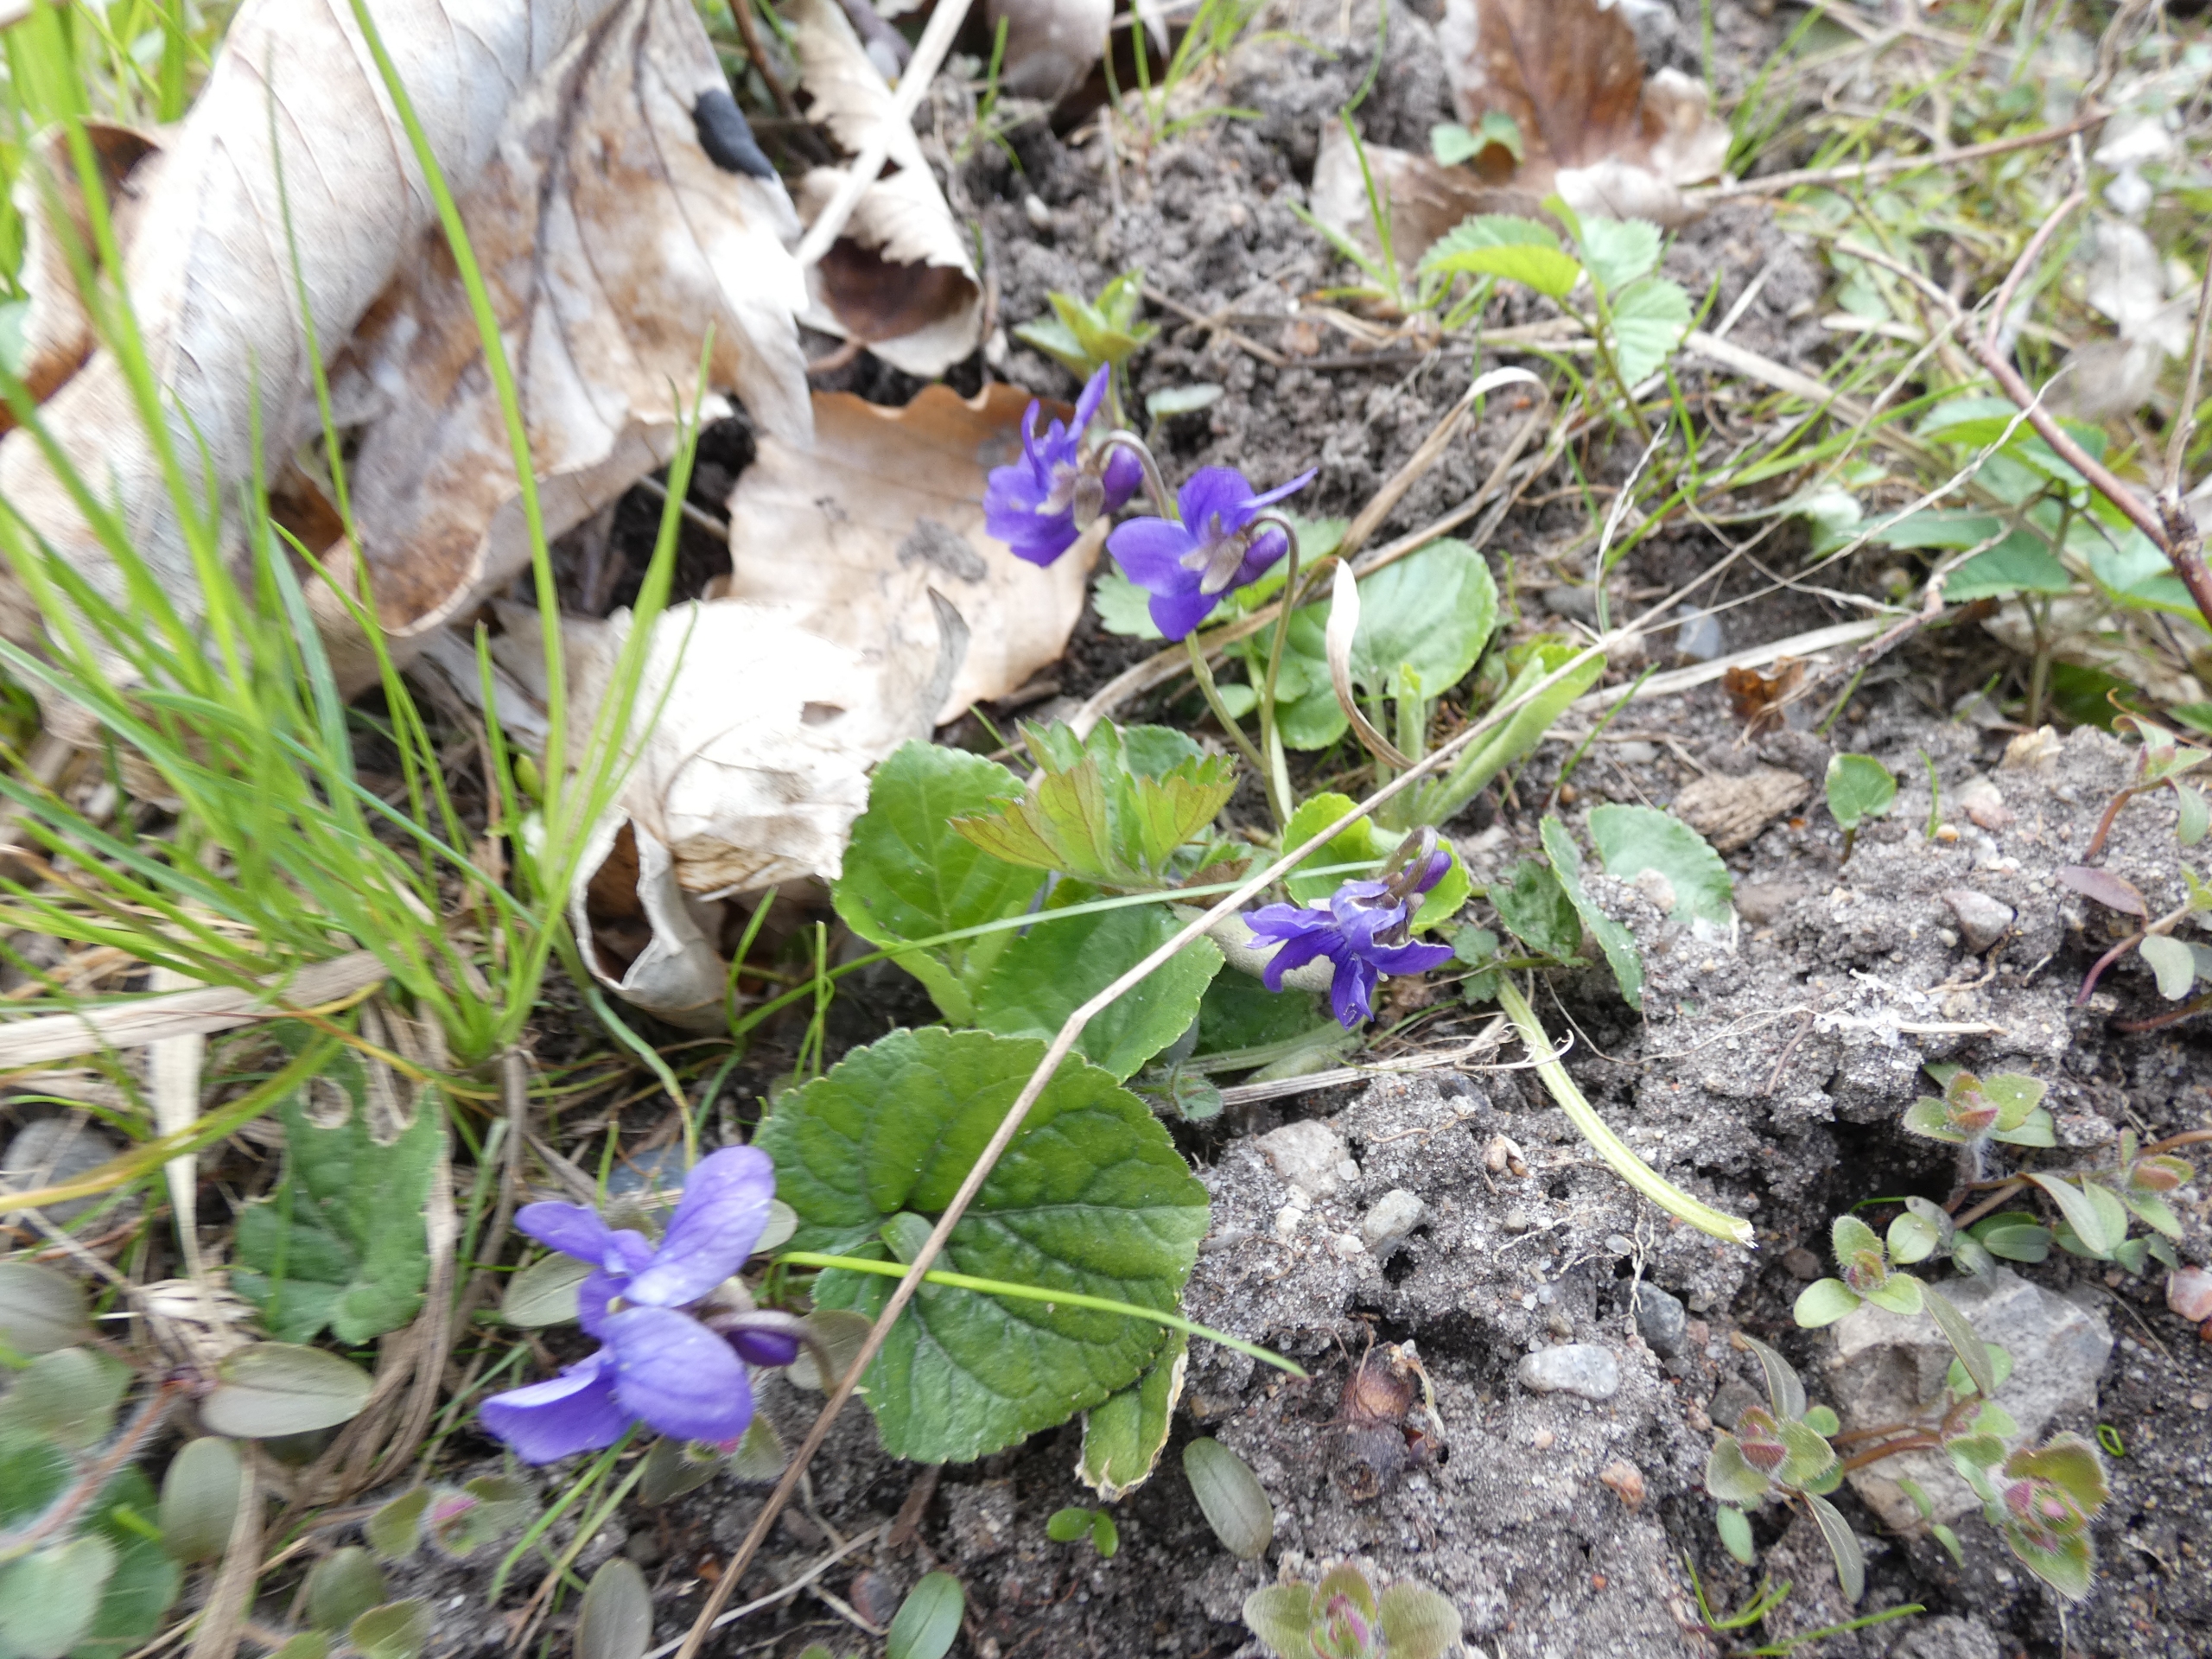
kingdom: Plantae
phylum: Tracheophyta
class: Magnoliopsida
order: Malpighiales
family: Violaceae
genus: Viola
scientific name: Viola odorata
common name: Marts-viol
